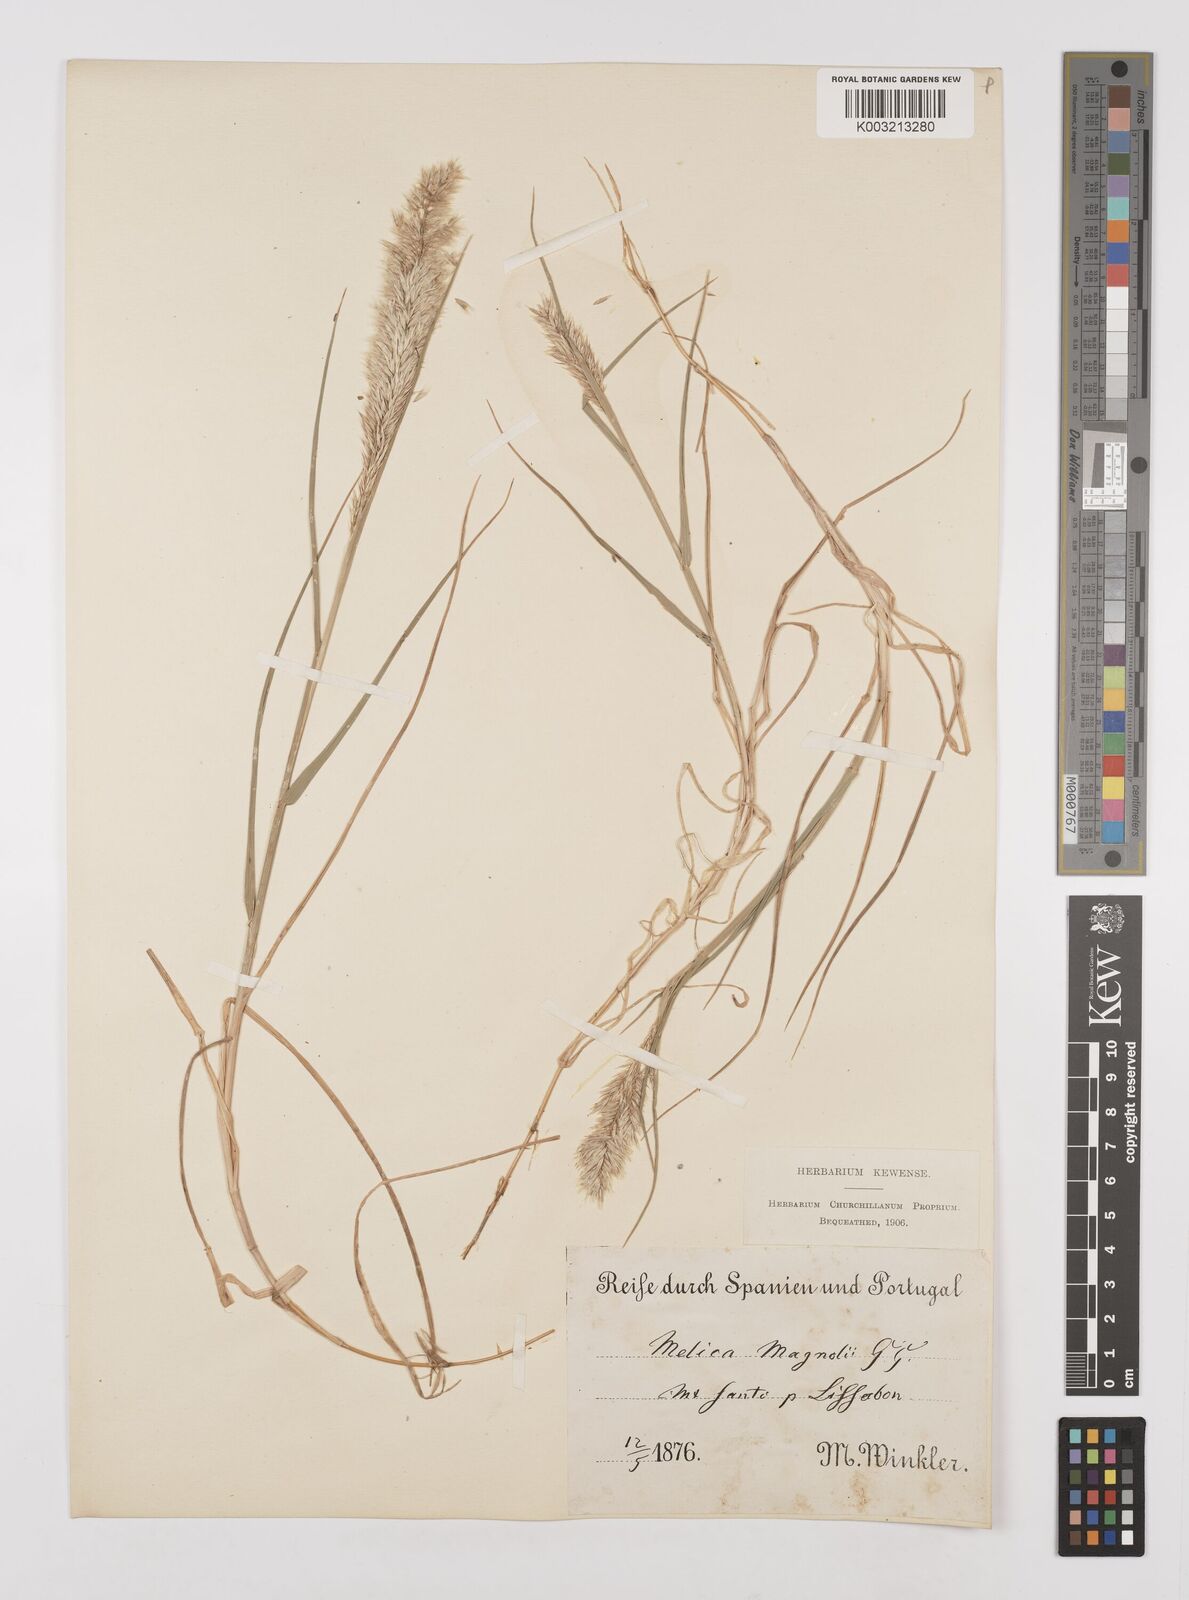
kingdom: Plantae
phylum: Tracheophyta
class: Liliopsida
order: Poales
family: Poaceae
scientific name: Poaceae
